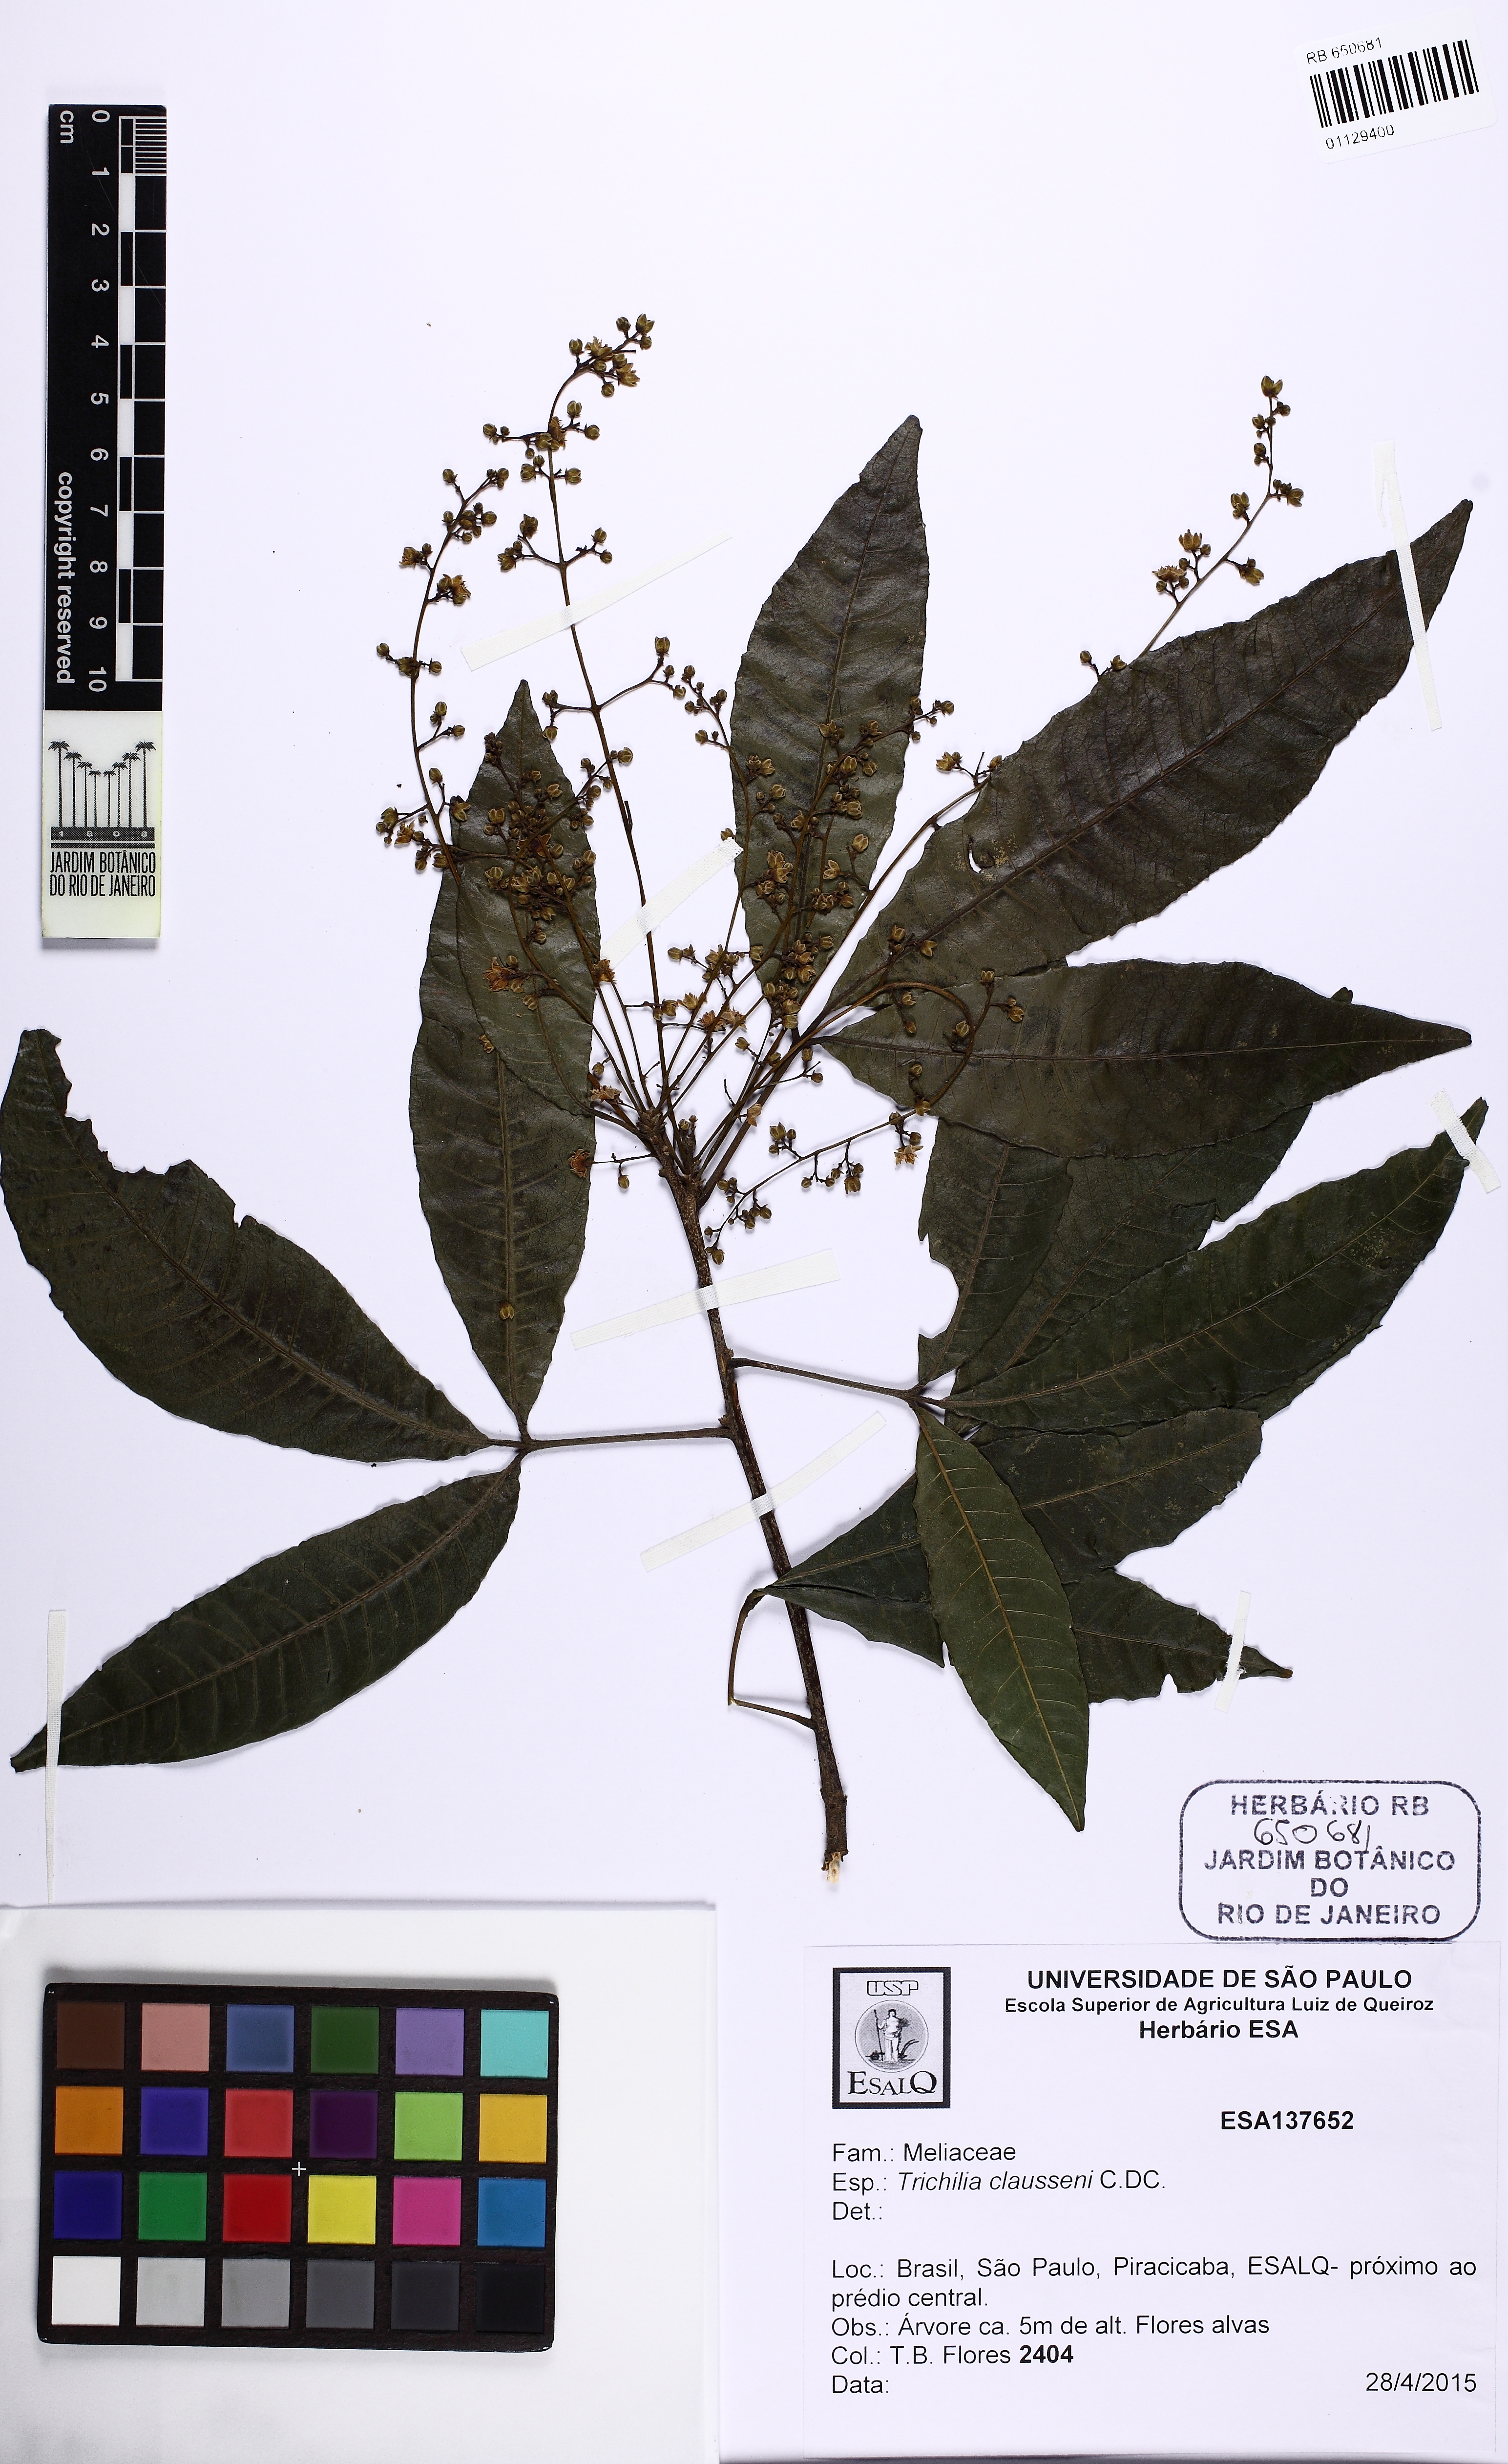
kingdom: Plantae
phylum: Tracheophyta
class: Magnoliopsida
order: Sapindales
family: Meliaceae
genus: Trichilia
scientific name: Trichilia claussenii
